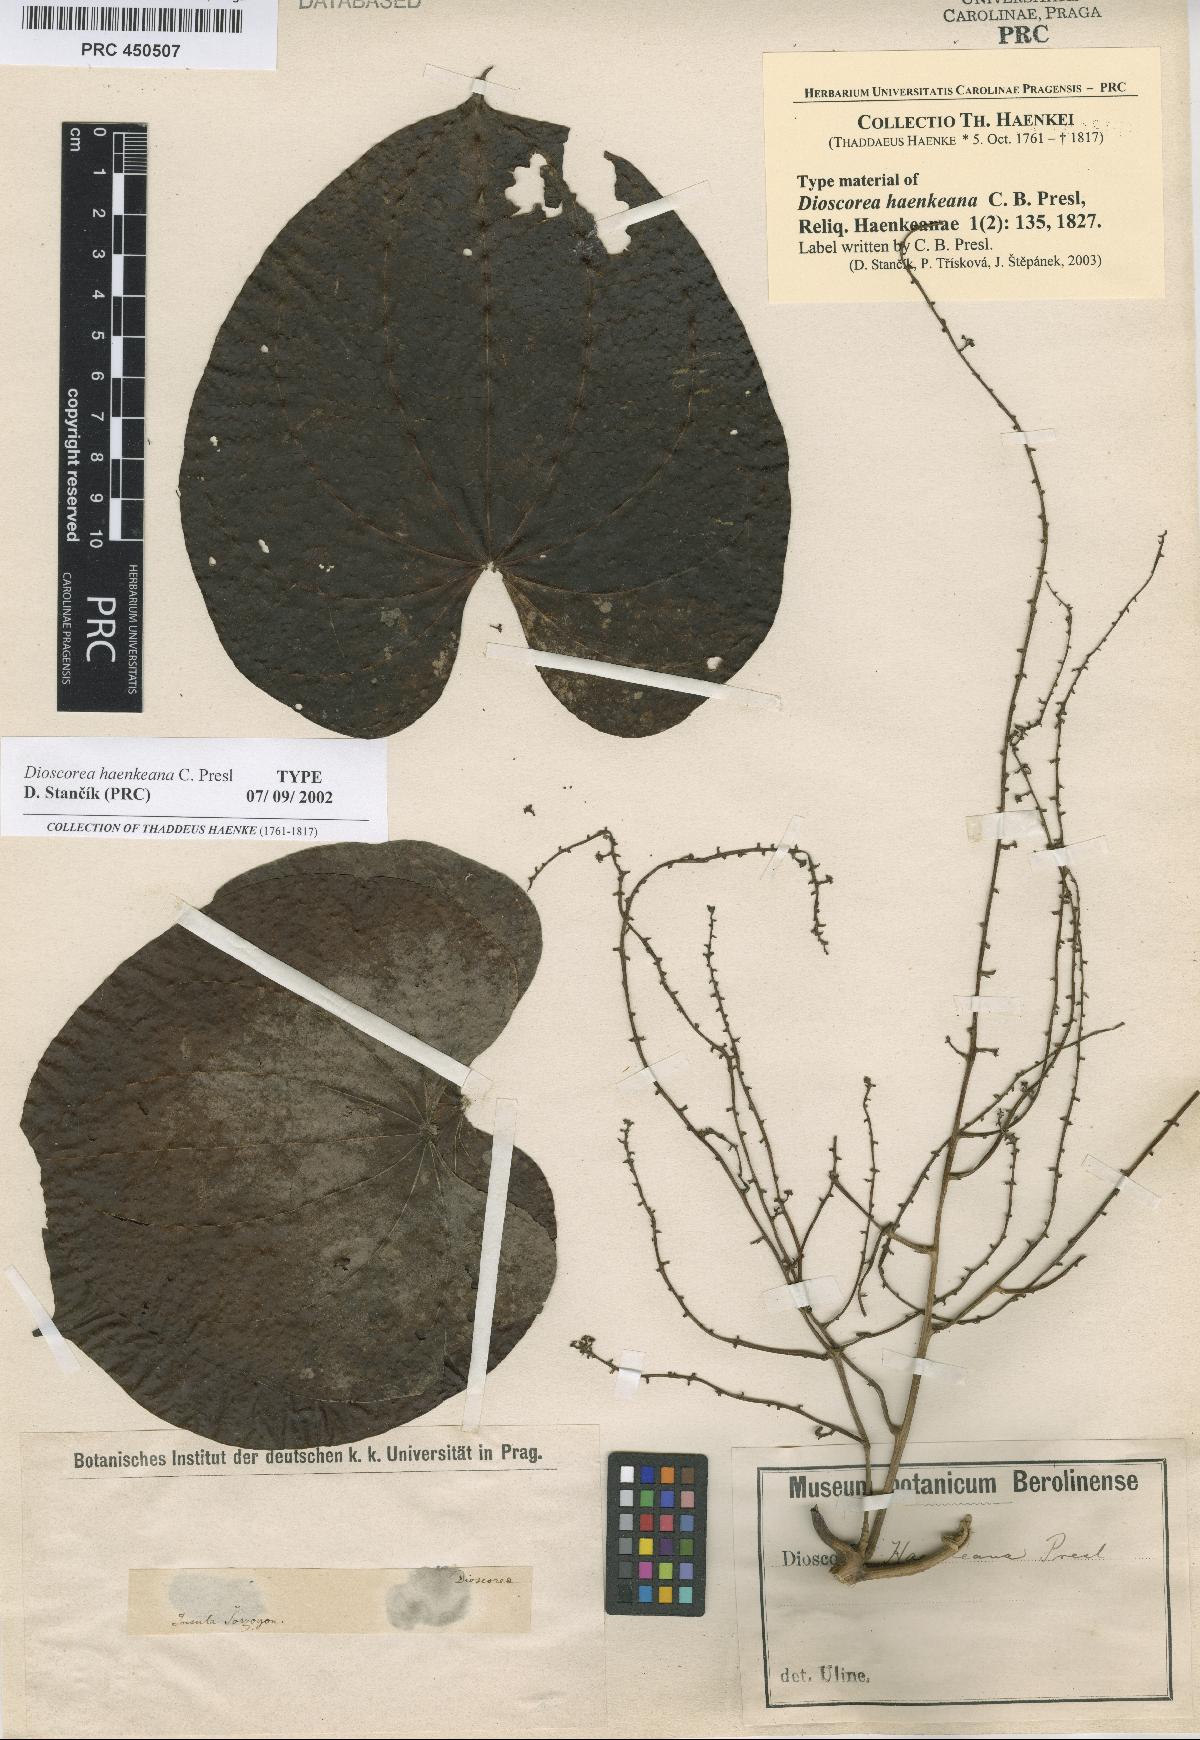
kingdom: Plantae
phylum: Tracheophyta
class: Liliopsida
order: Dioscoreales
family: Dioscoreaceae
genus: Dioscorea
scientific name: Dioscorea haenkeana
